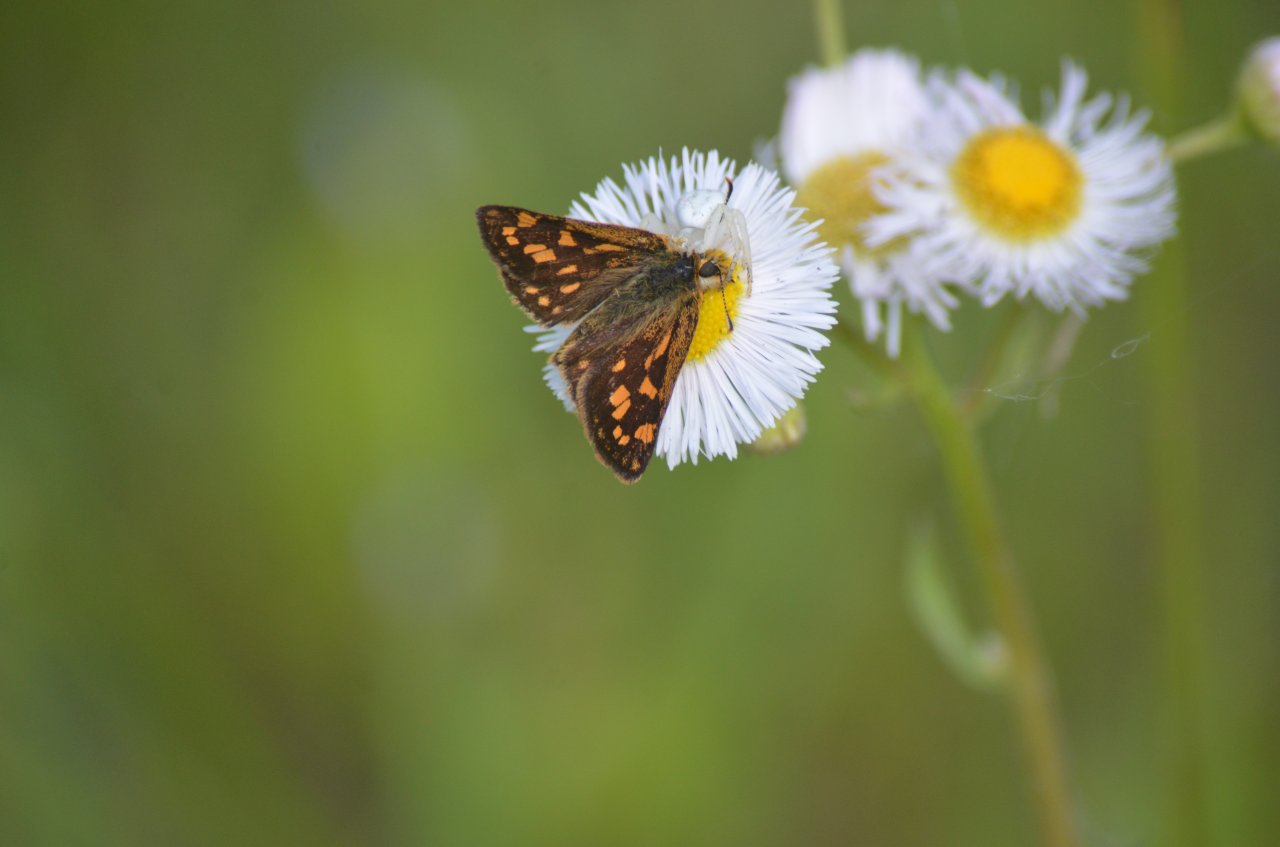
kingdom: Animalia
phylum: Arthropoda
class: Insecta
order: Lepidoptera
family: Hesperiidae
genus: Carterocephalus
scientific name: Carterocephalus palaemon
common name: Chequered Skipper
